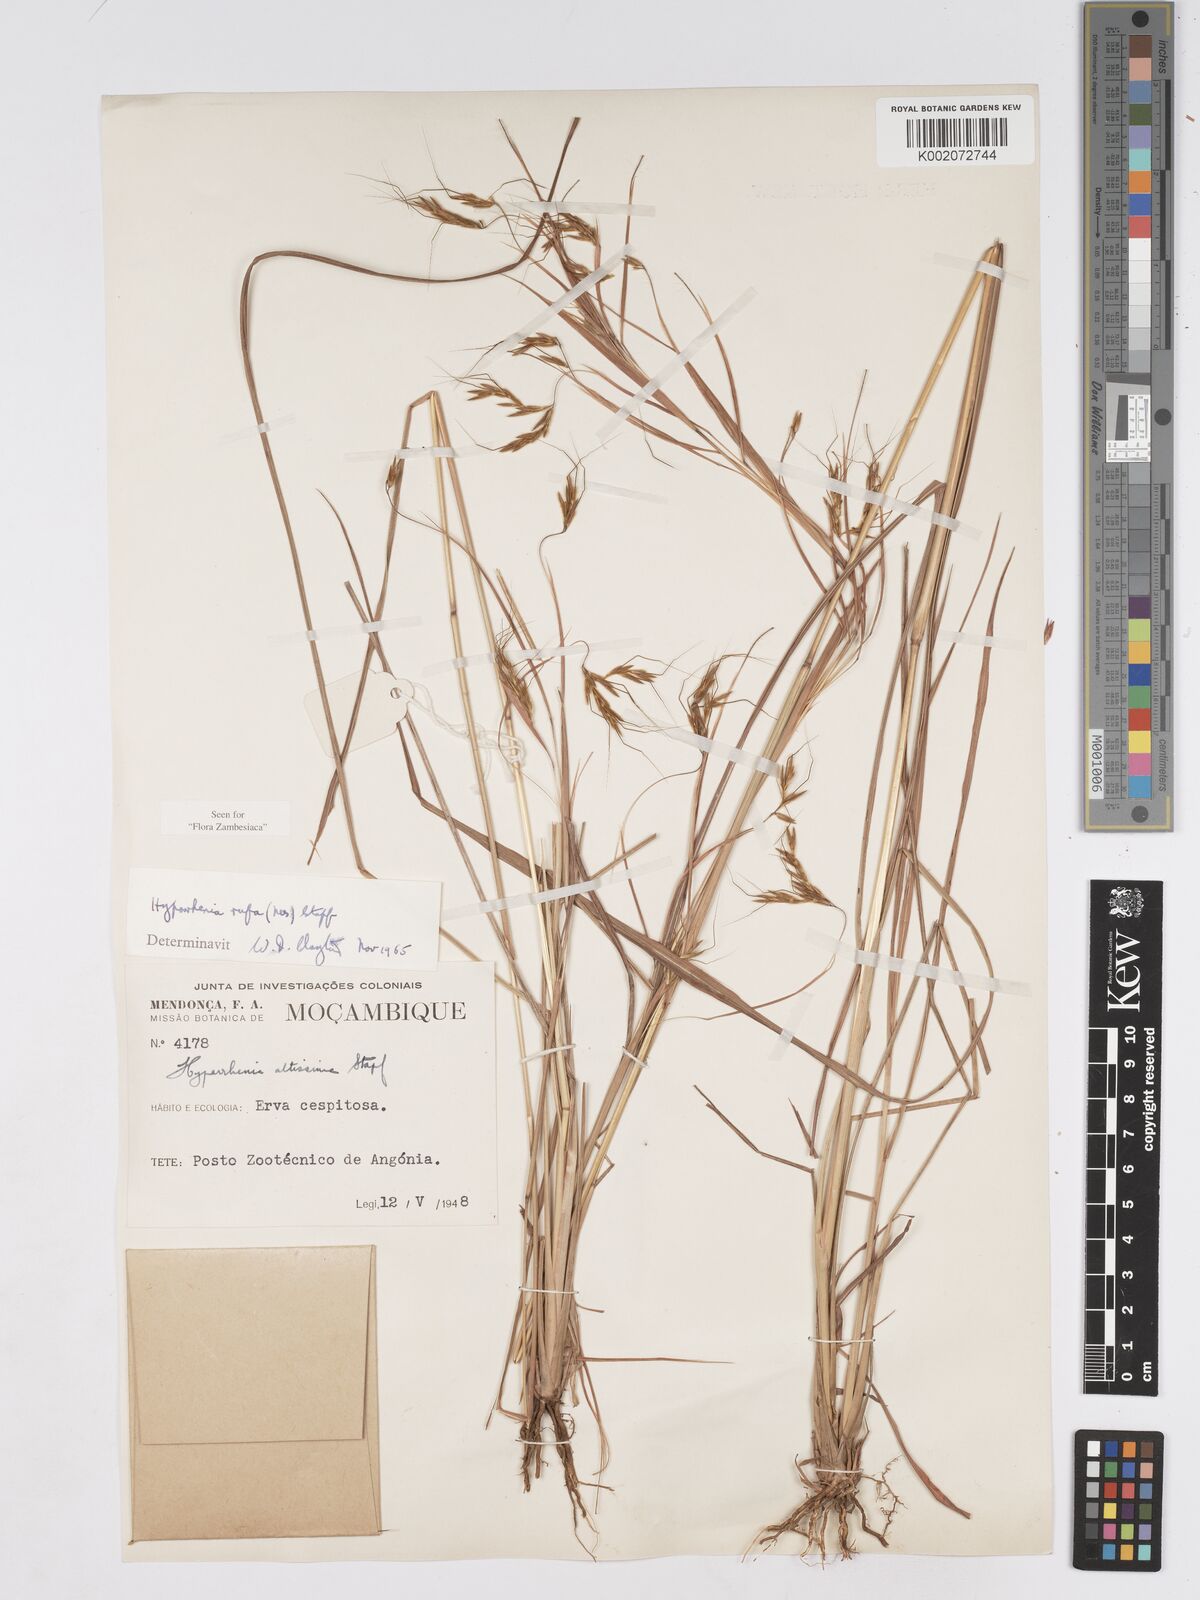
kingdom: Plantae
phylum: Tracheophyta
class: Liliopsida
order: Poales
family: Poaceae
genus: Hyparrhenia
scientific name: Hyparrhenia rufa
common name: Jaraguagrass
